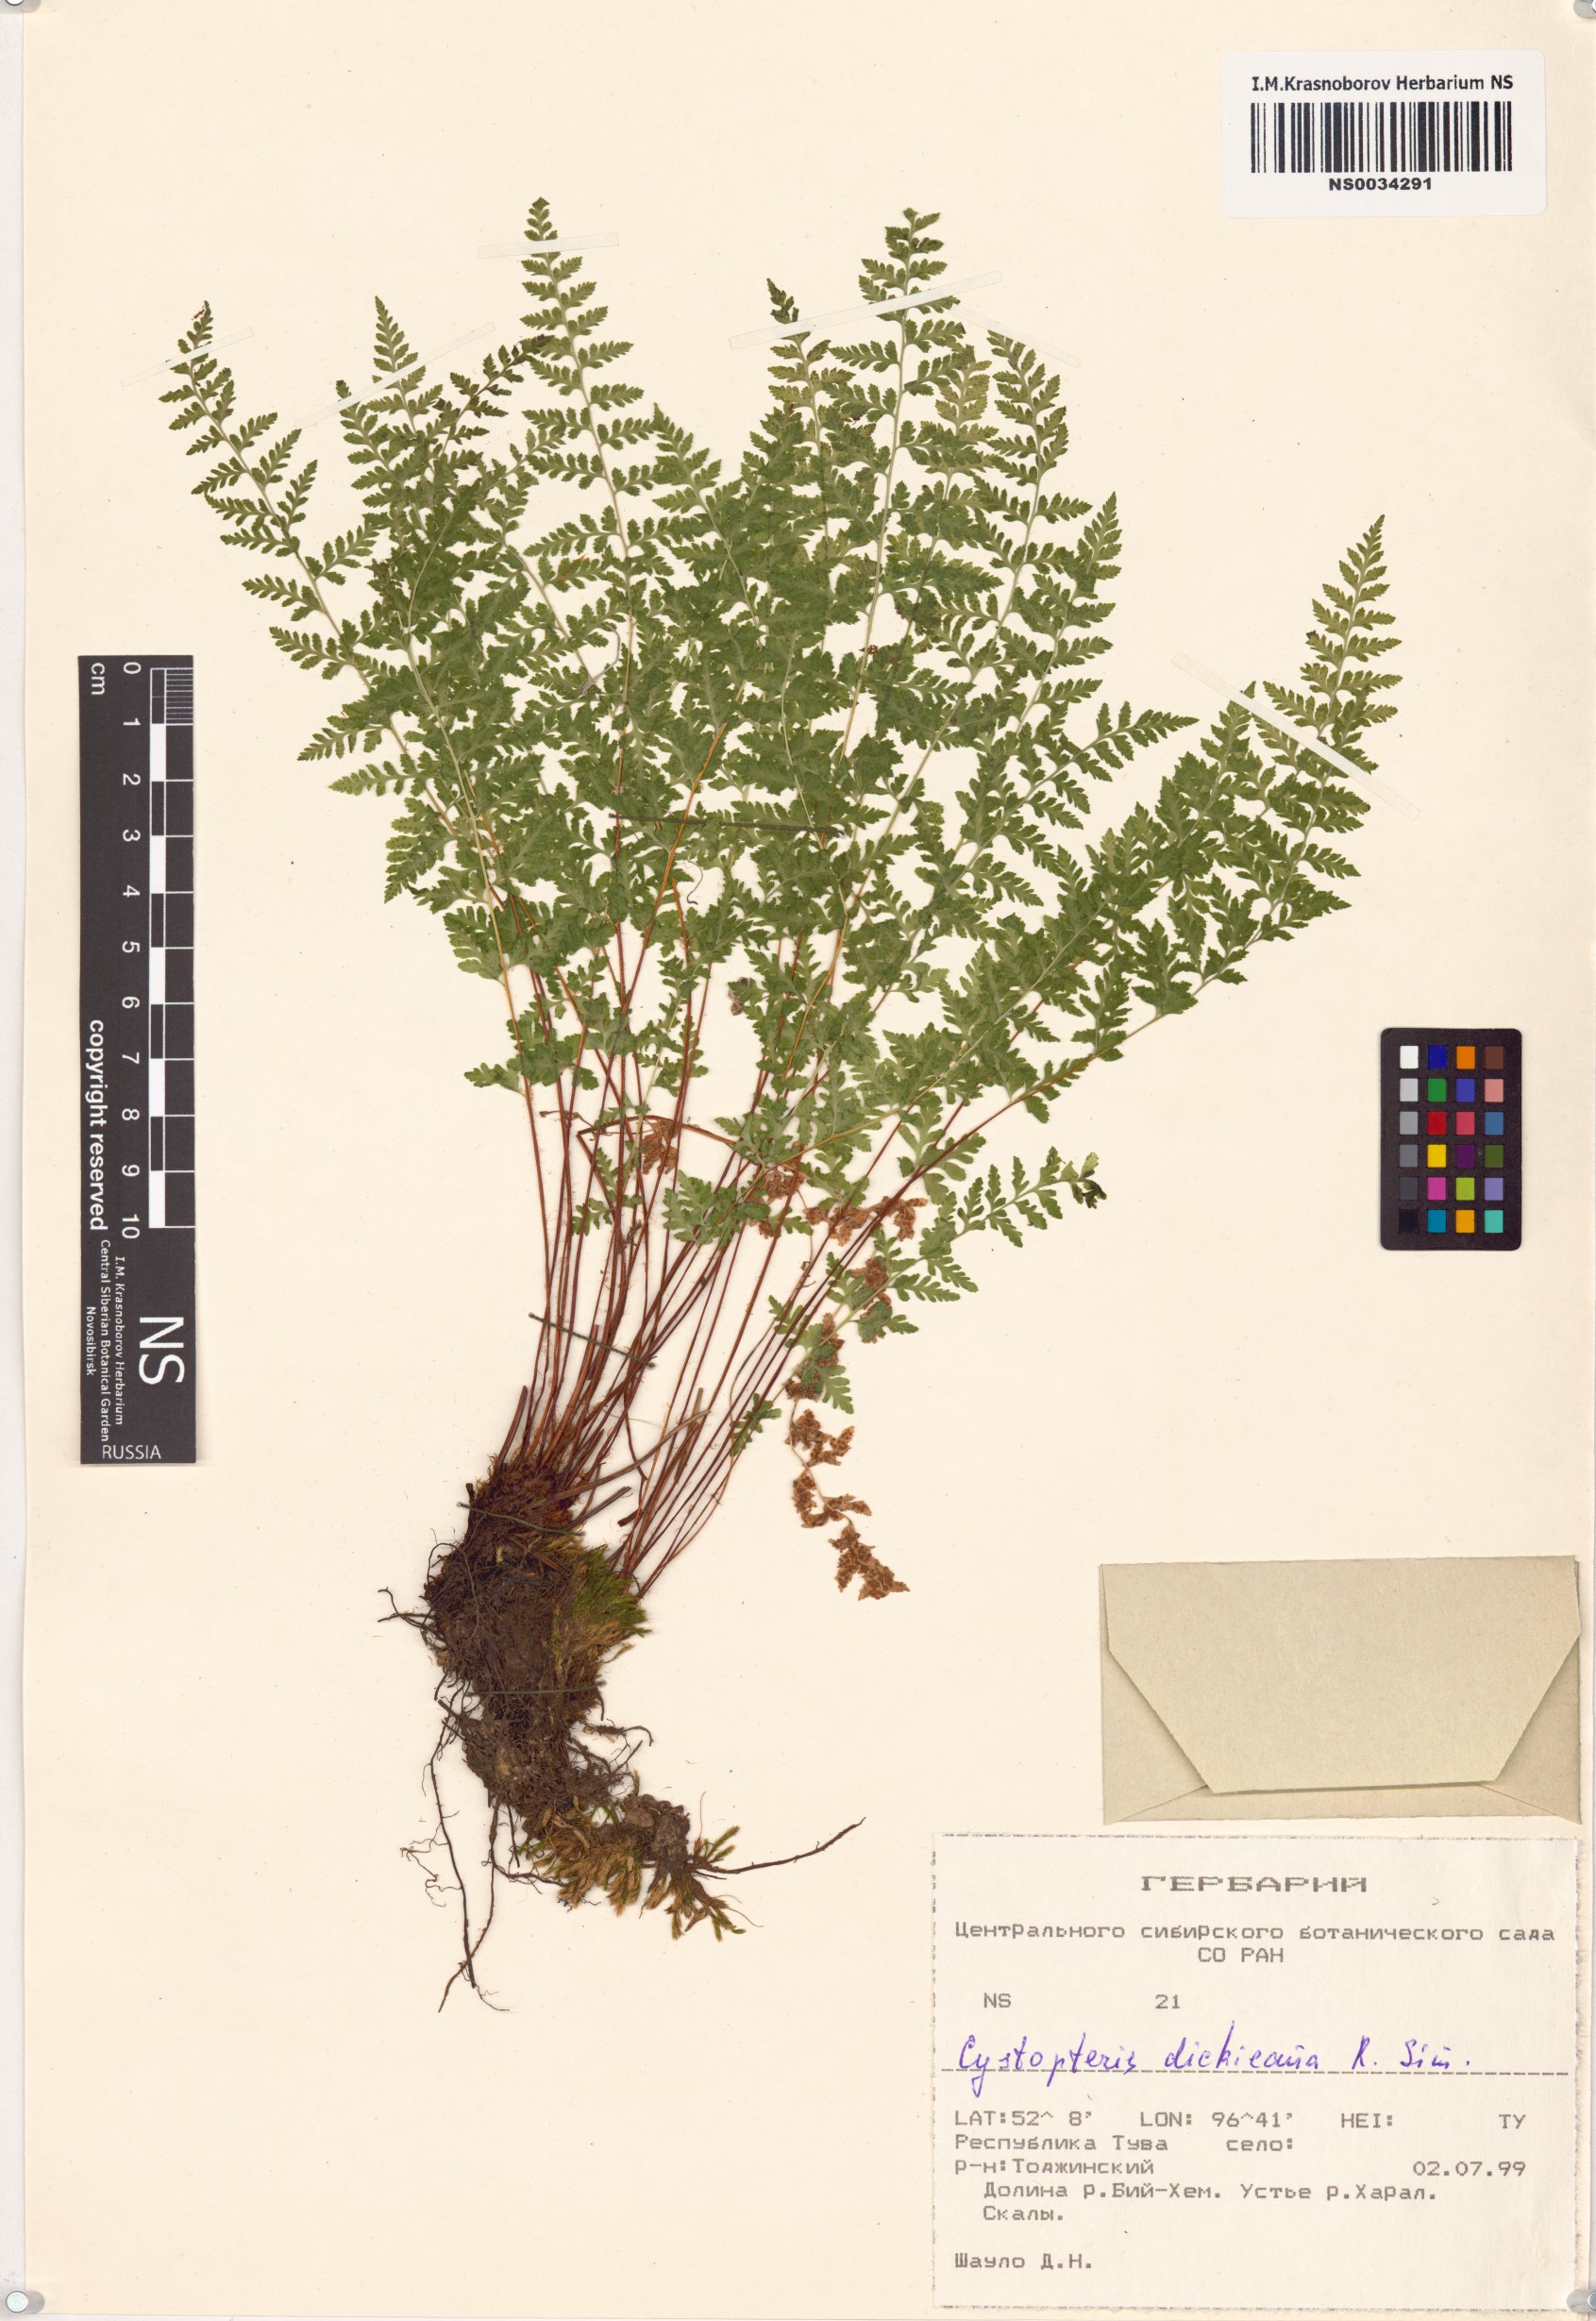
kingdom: Plantae
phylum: Tracheophyta
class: Polypodiopsida
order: Polypodiales
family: Cystopteridaceae
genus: Cystopteris
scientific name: Cystopteris dickieana
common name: Dickie's bladder-fern
